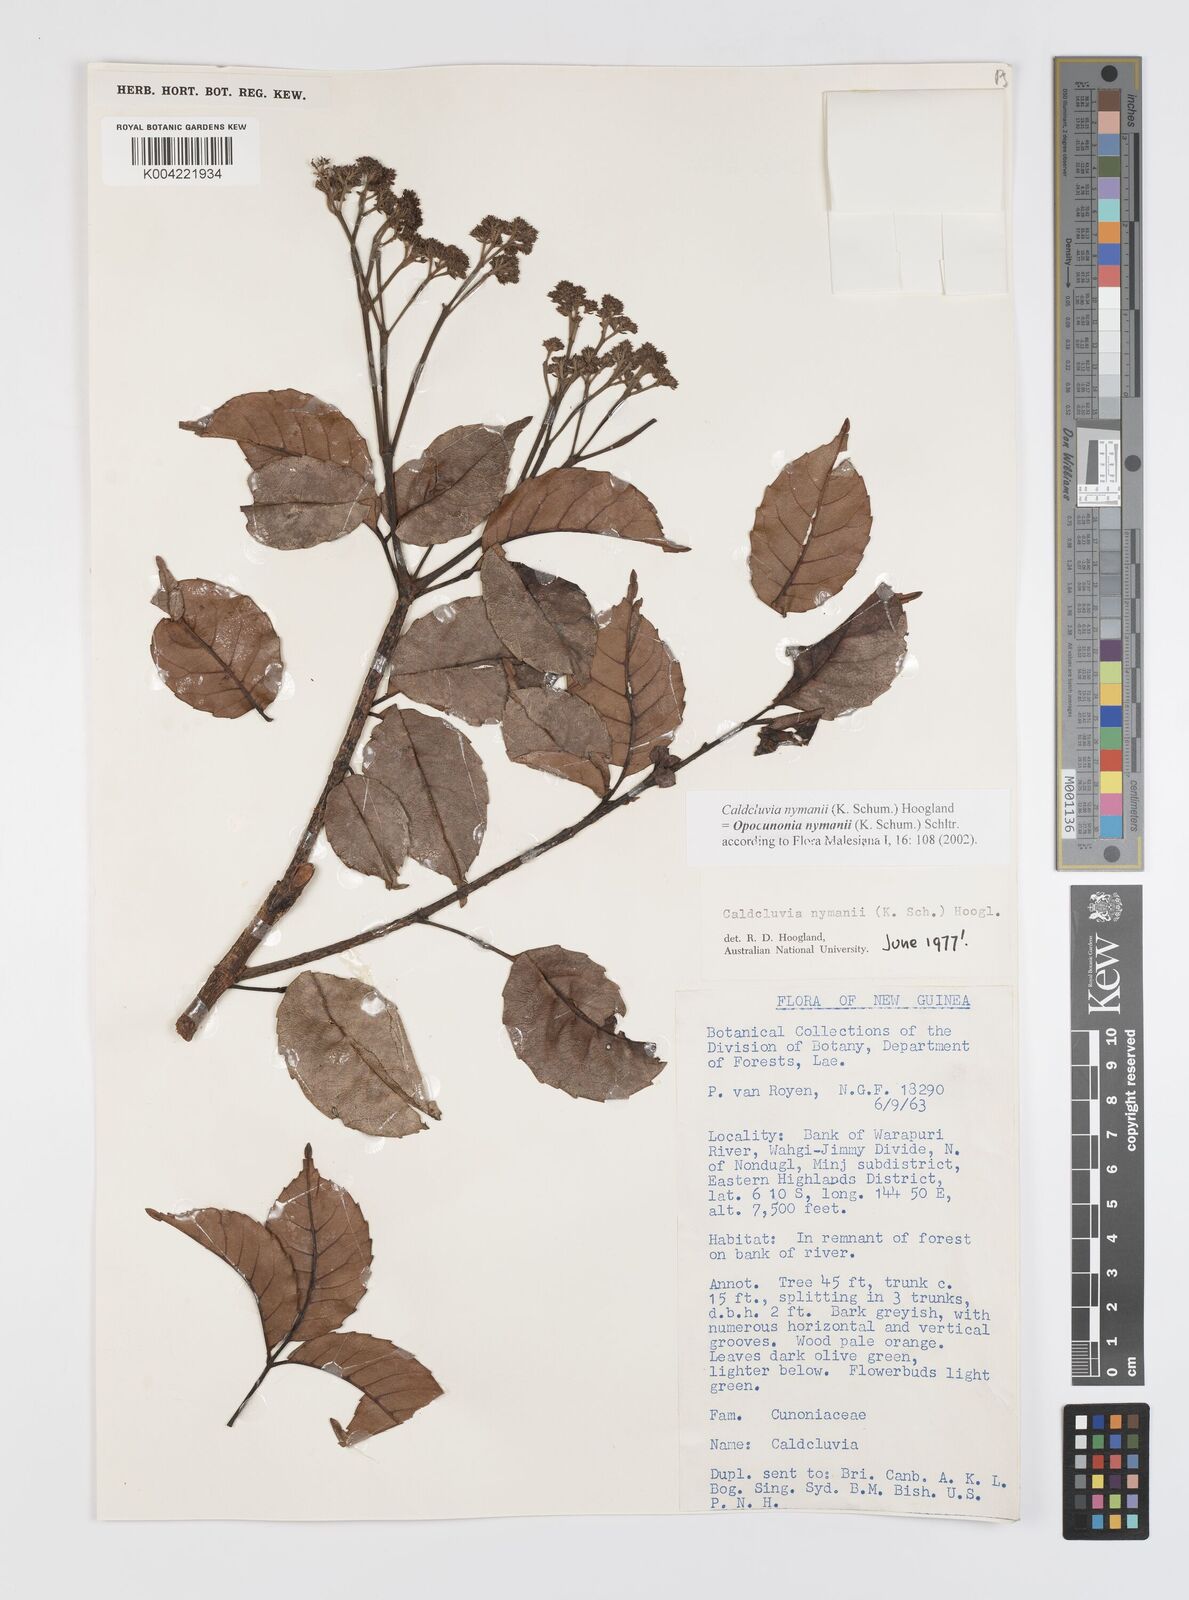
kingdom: Plantae
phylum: Tracheophyta
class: Magnoliopsida
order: Oxalidales
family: Cunoniaceae
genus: Opocunonia
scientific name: Opocunonia nymanii
